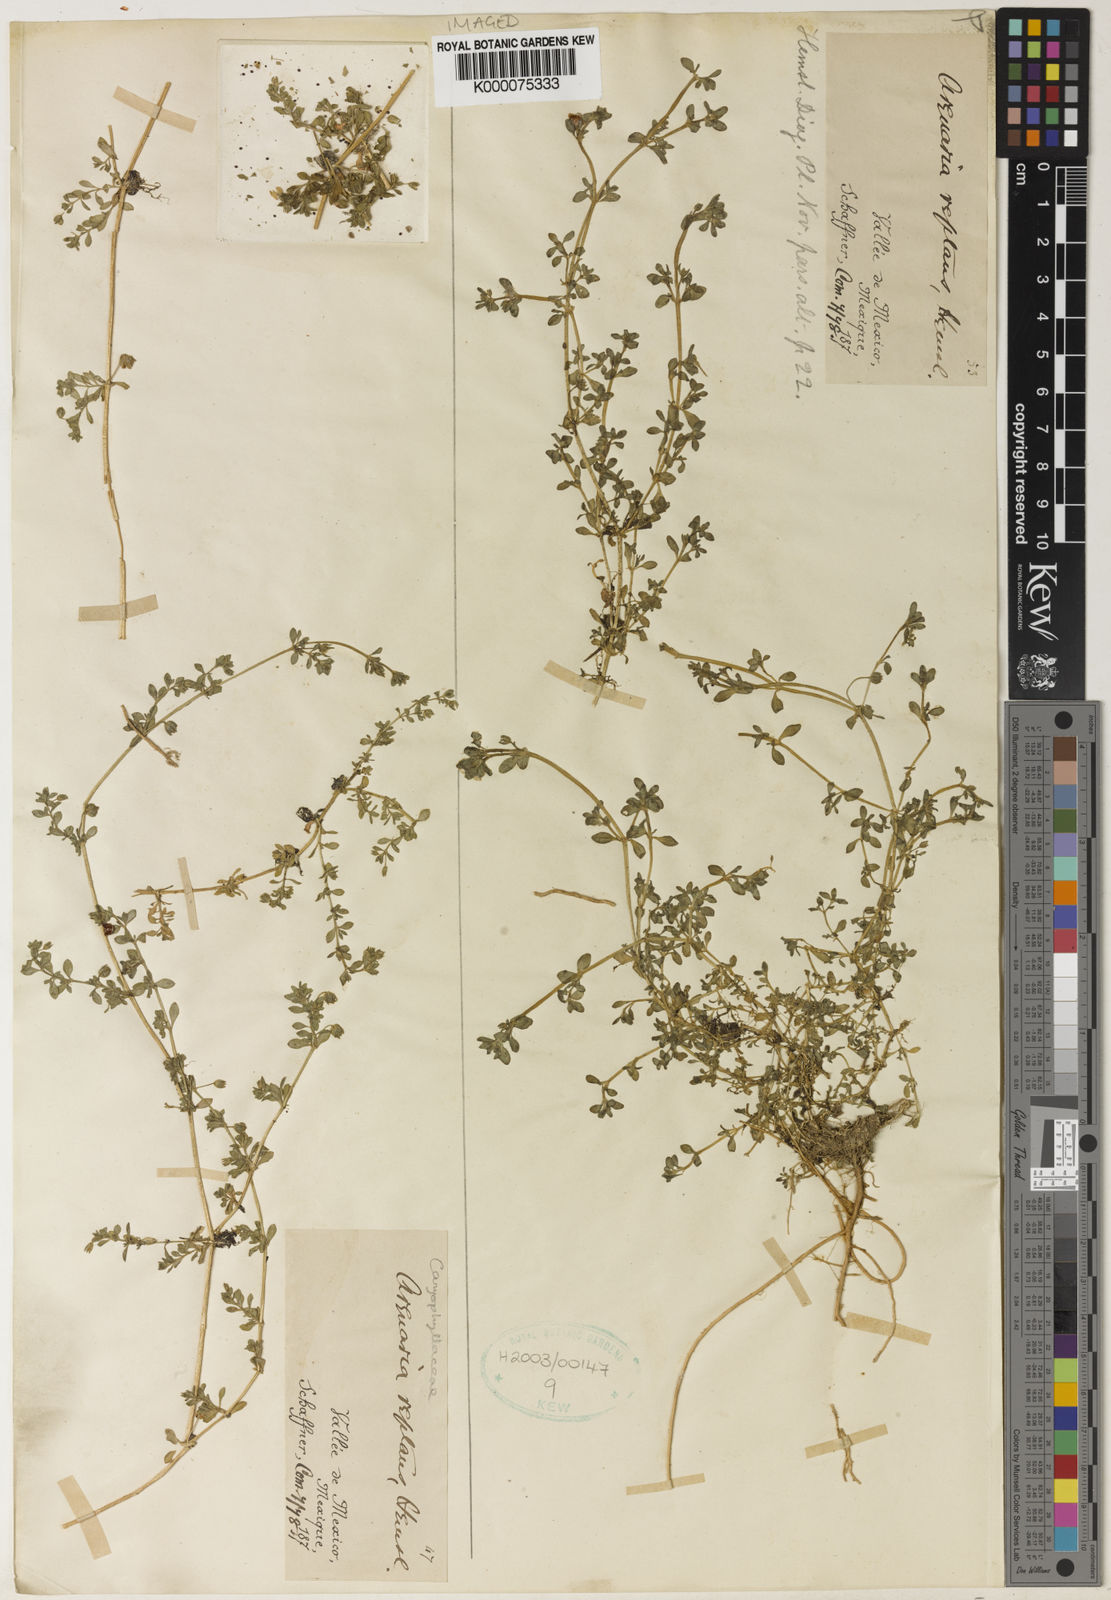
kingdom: Plantae
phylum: Tracheophyta
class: Magnoliopsida
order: Caryophyllales
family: Caryophyllaceae
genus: Arenaria
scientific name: Arenaria reptans
